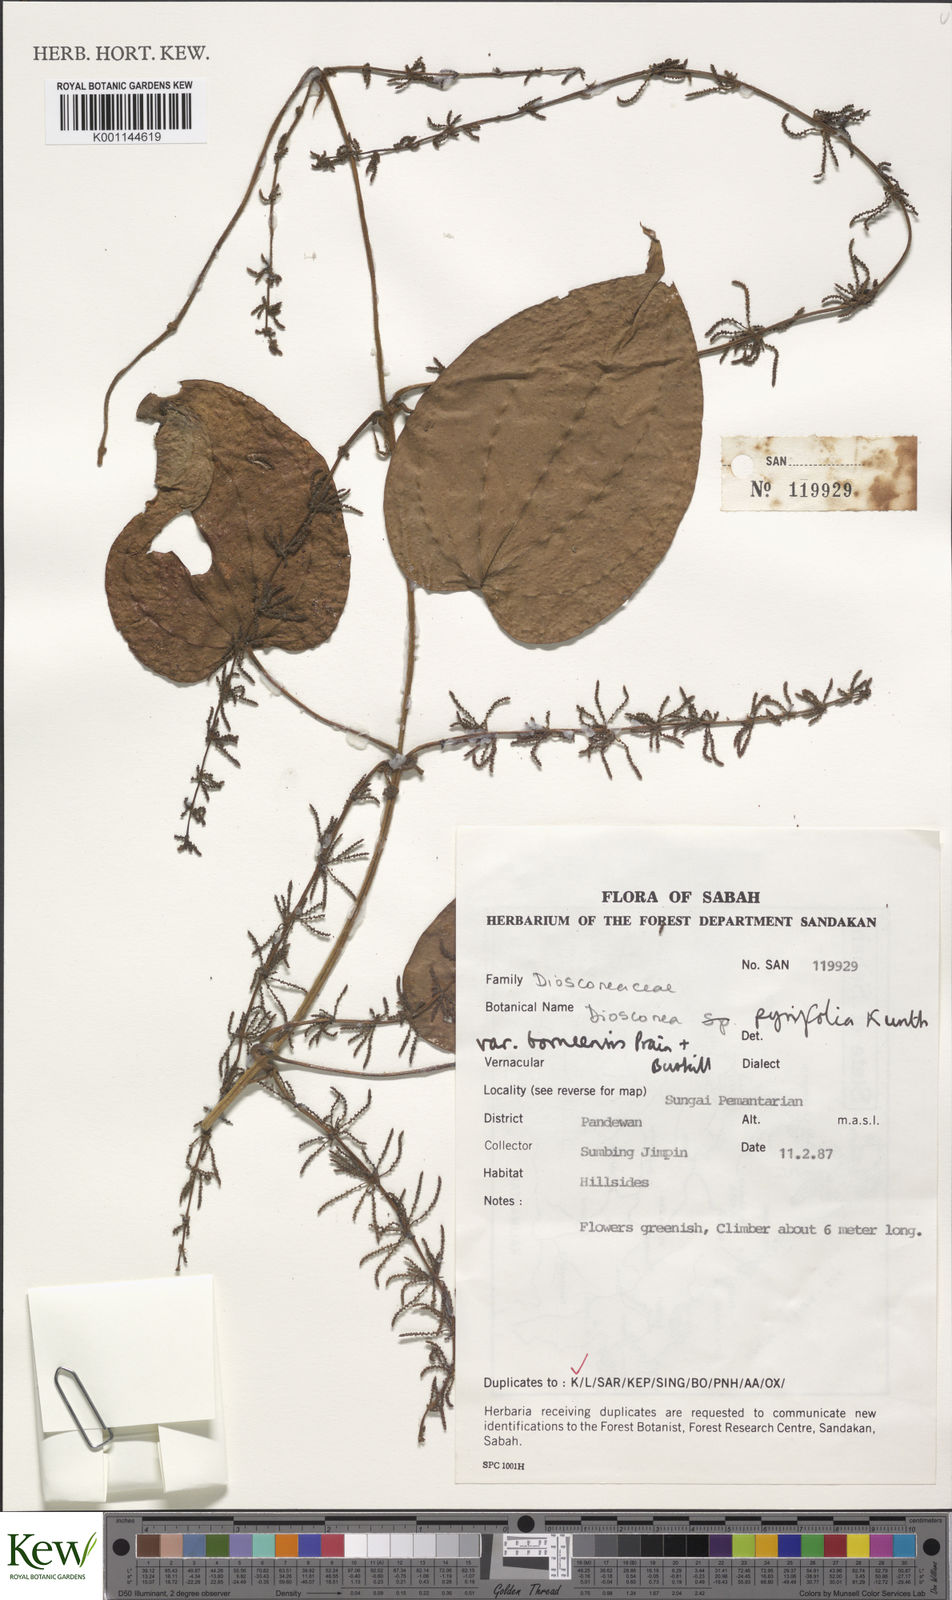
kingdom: Plantae
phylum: Tracheophyta
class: Liliopsida
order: Dioscoreales
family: Dioscoreaceae
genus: Dioscorea
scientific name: Dioscorea pyrifolia
